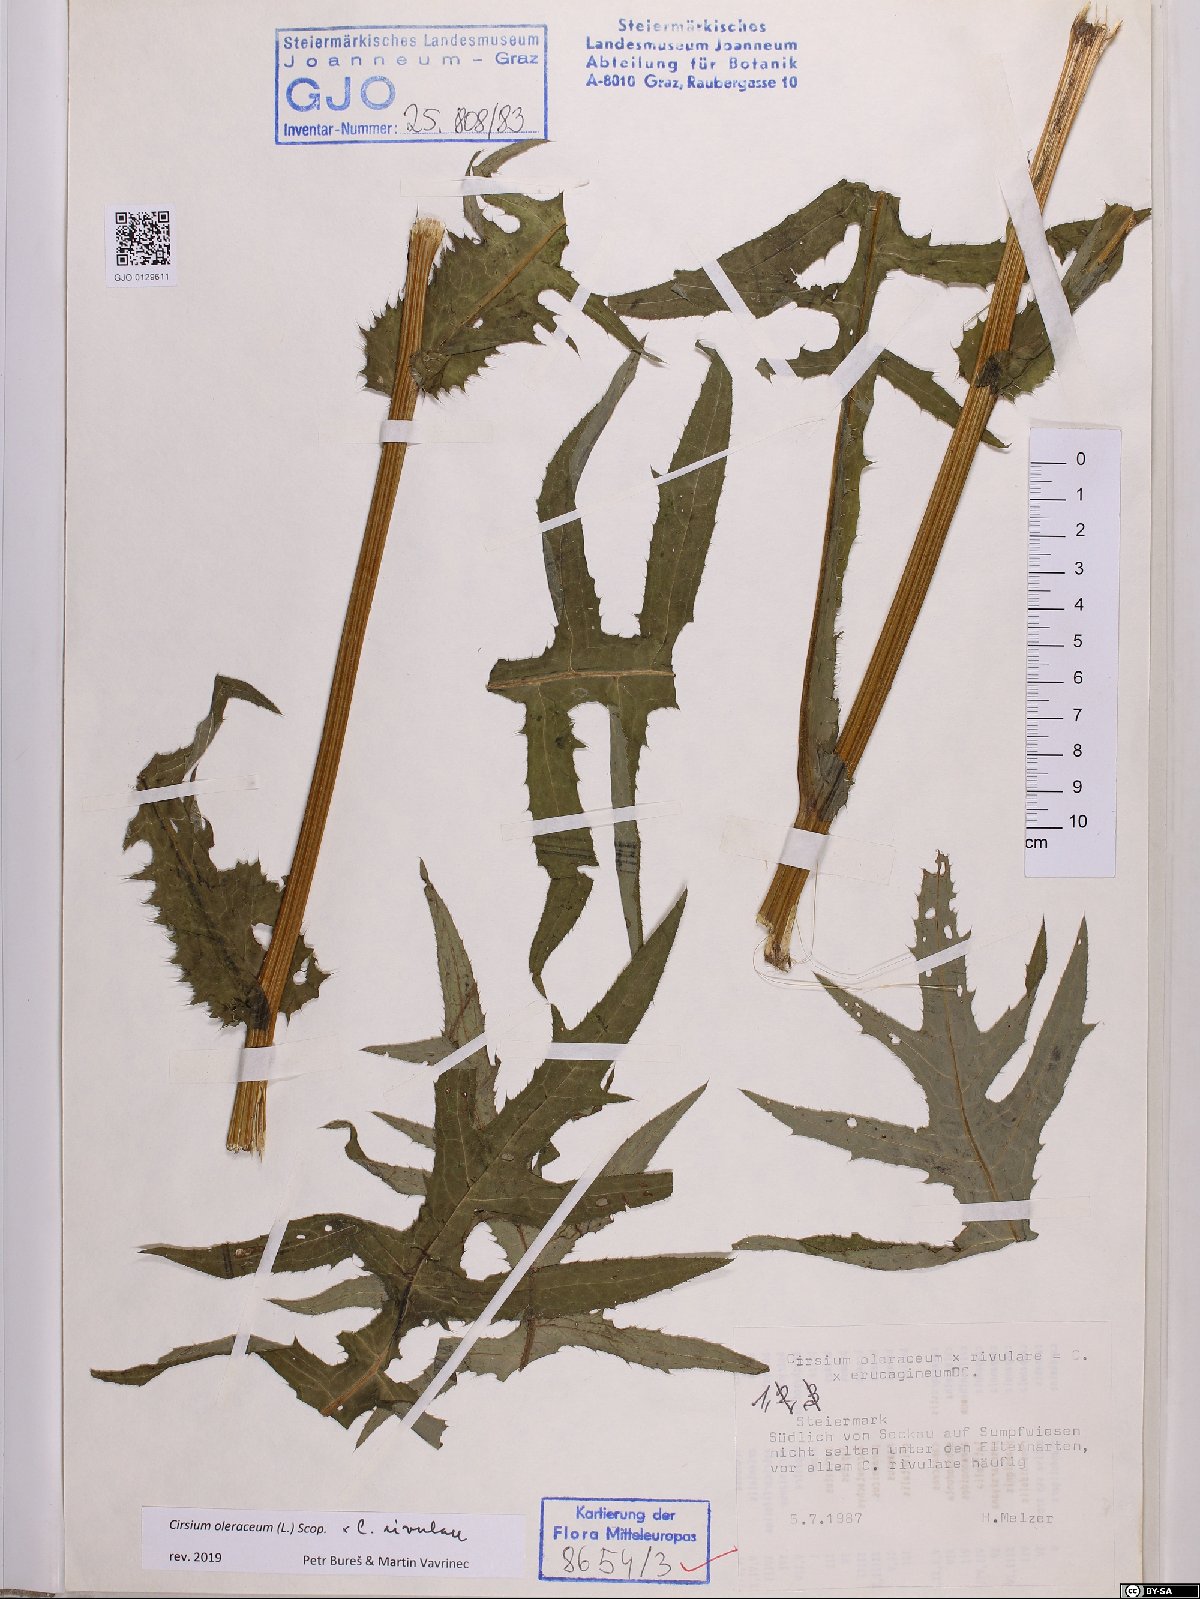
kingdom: Plantae
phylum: Tracheophyta
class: Magnoliopsida
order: Asterales
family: Asteraceae
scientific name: Asteraceae
